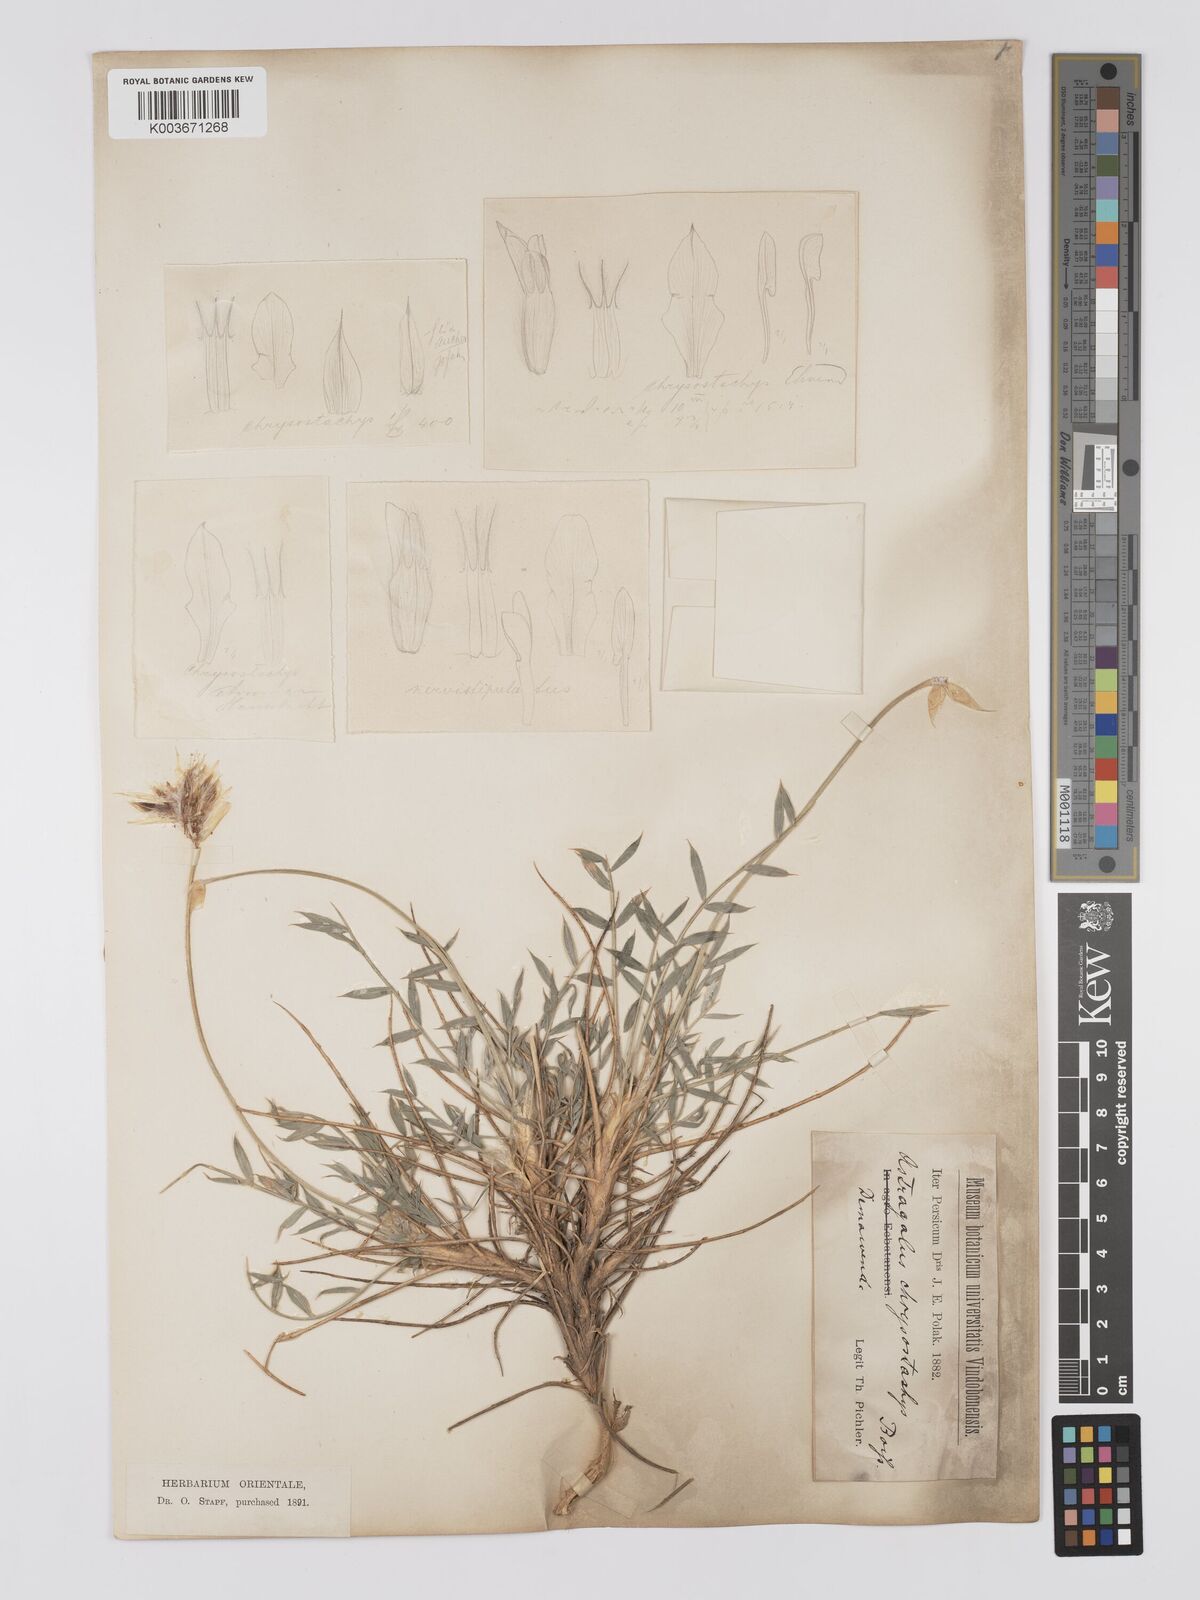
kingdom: Plantae
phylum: Tracheophyta
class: Magnoliopsida
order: Fabales
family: Fabaceae
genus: Astragalus
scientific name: Astragalus chrysostachys
